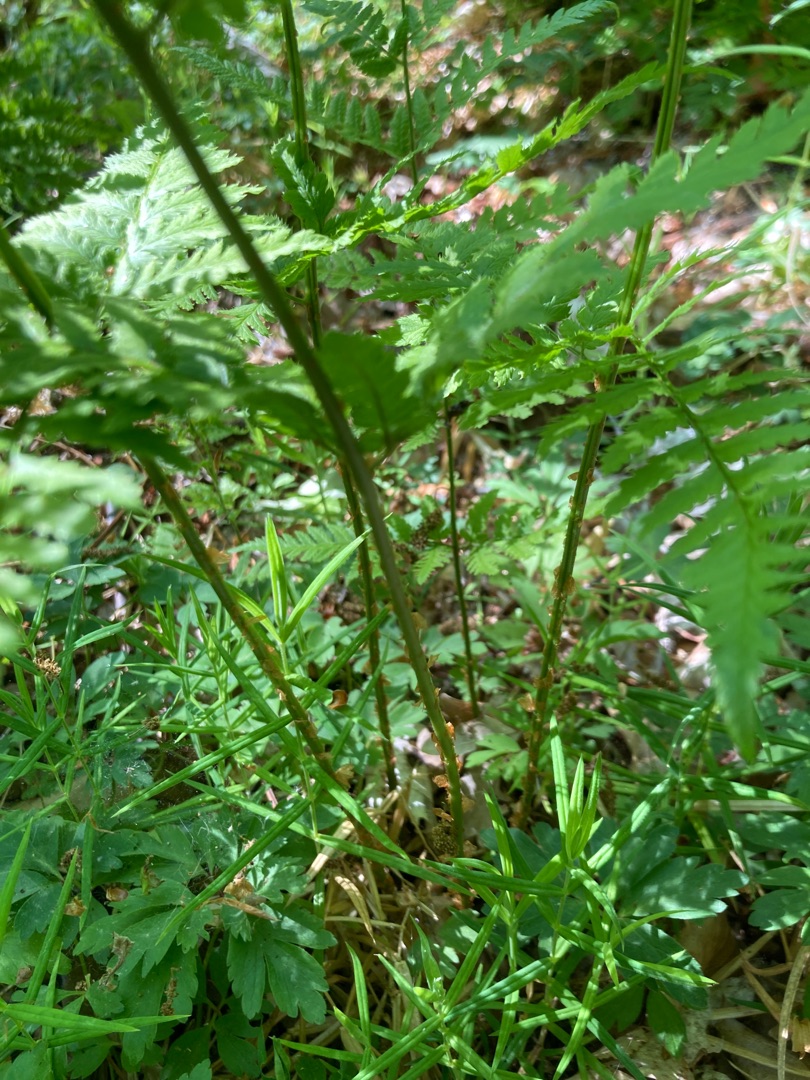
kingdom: Plantae
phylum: Tracheophyta
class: Polypodiopsida
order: Polypodiales
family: Dryopteridaceae
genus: Dryopteris
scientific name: Dryopteris carthusiana
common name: Smalbladet mangeløv
